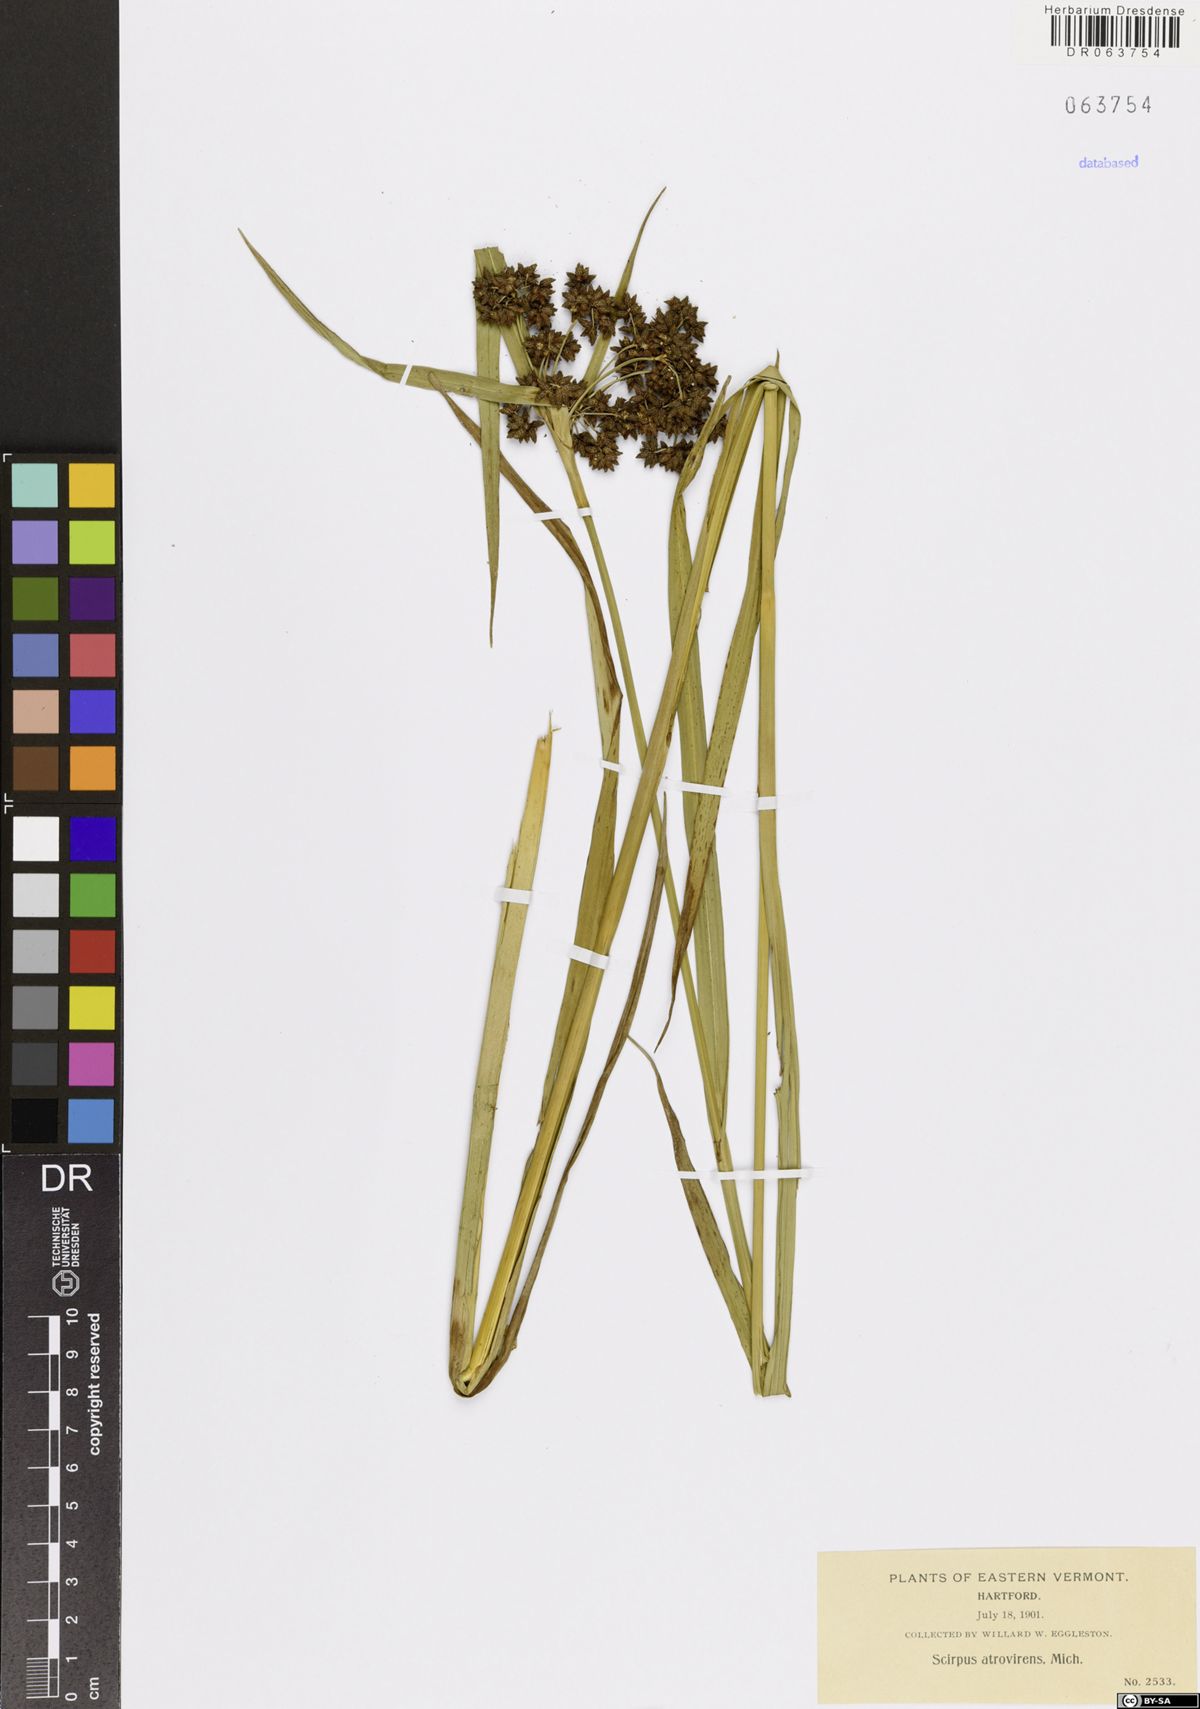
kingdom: Plantae
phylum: Tracheophyta
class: Liliopsida
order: Poales
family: Cyperaceae
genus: Scirpus
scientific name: Scirpus atrovirens
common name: Black bulrush
